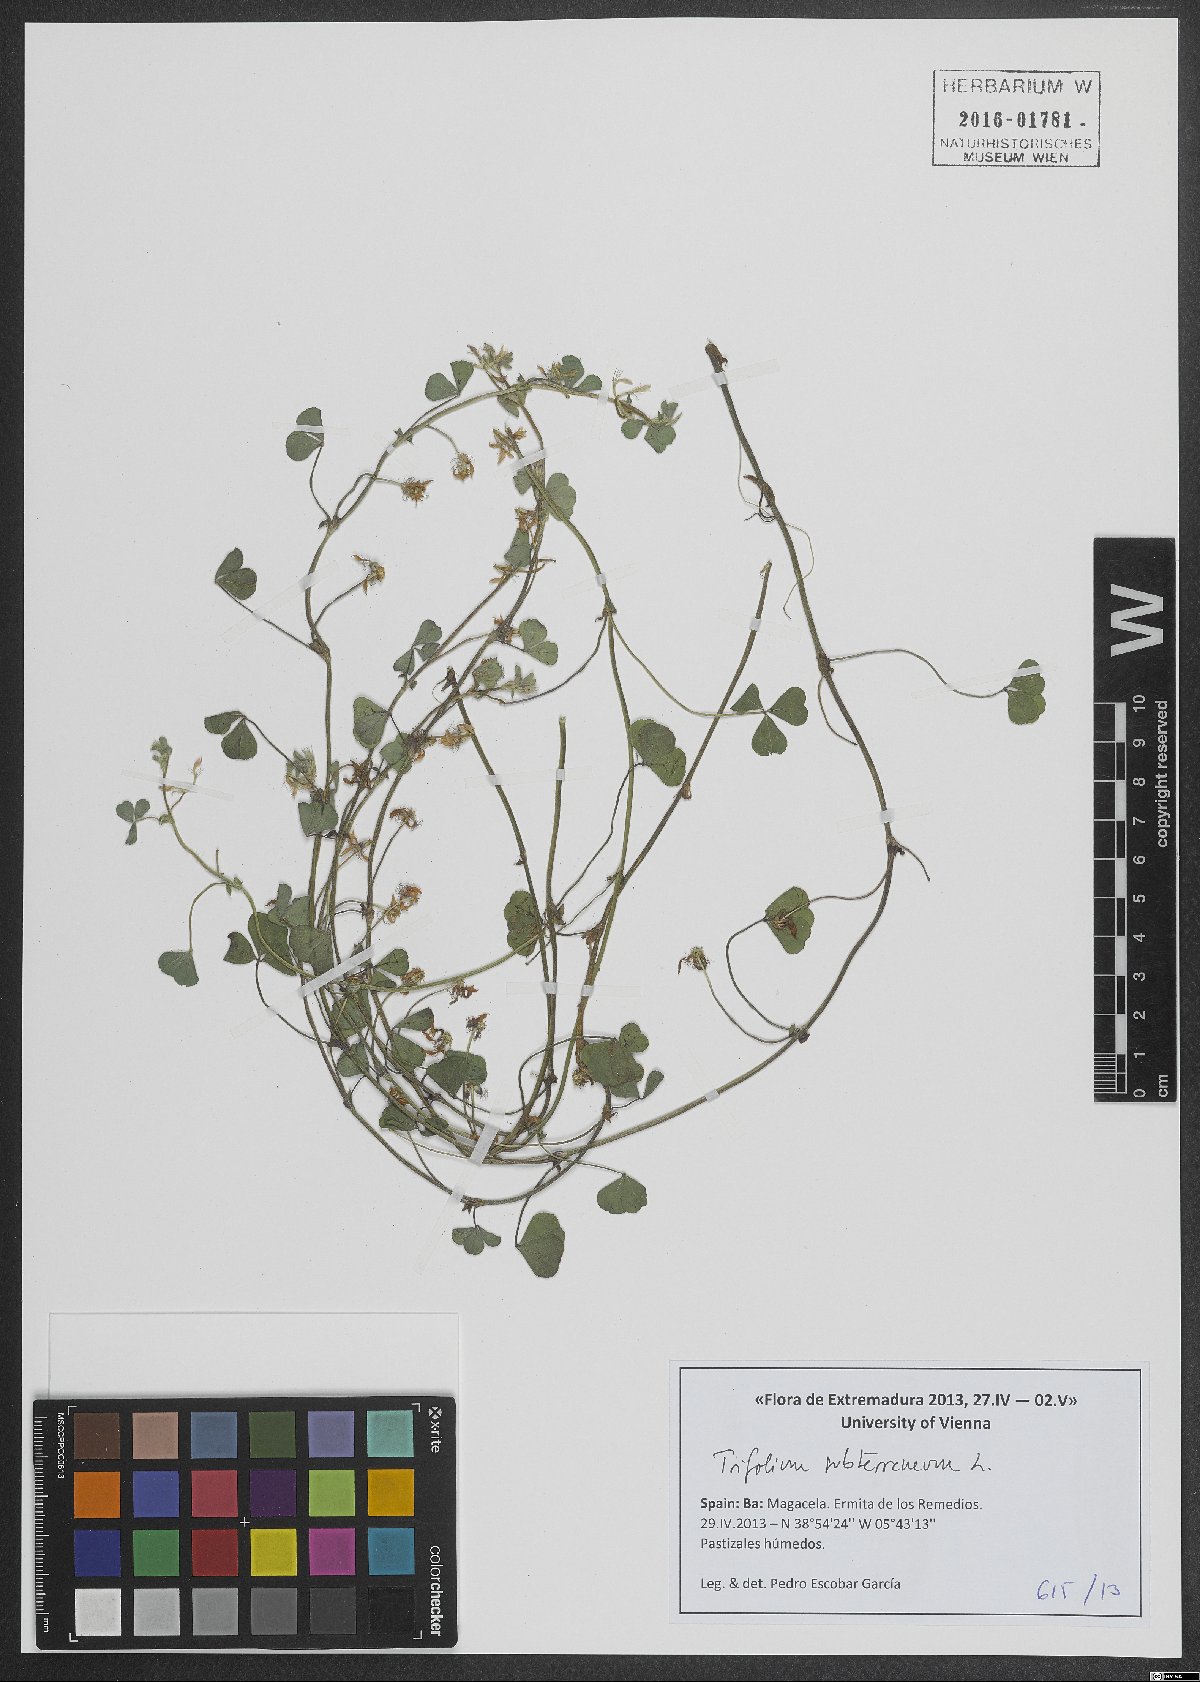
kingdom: Plantae
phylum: Tracheophyta
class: Magnoliopsida
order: Fabales
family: Fabaceae
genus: Trifolium
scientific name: Trifolium subterraneum
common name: Subterranean clover
